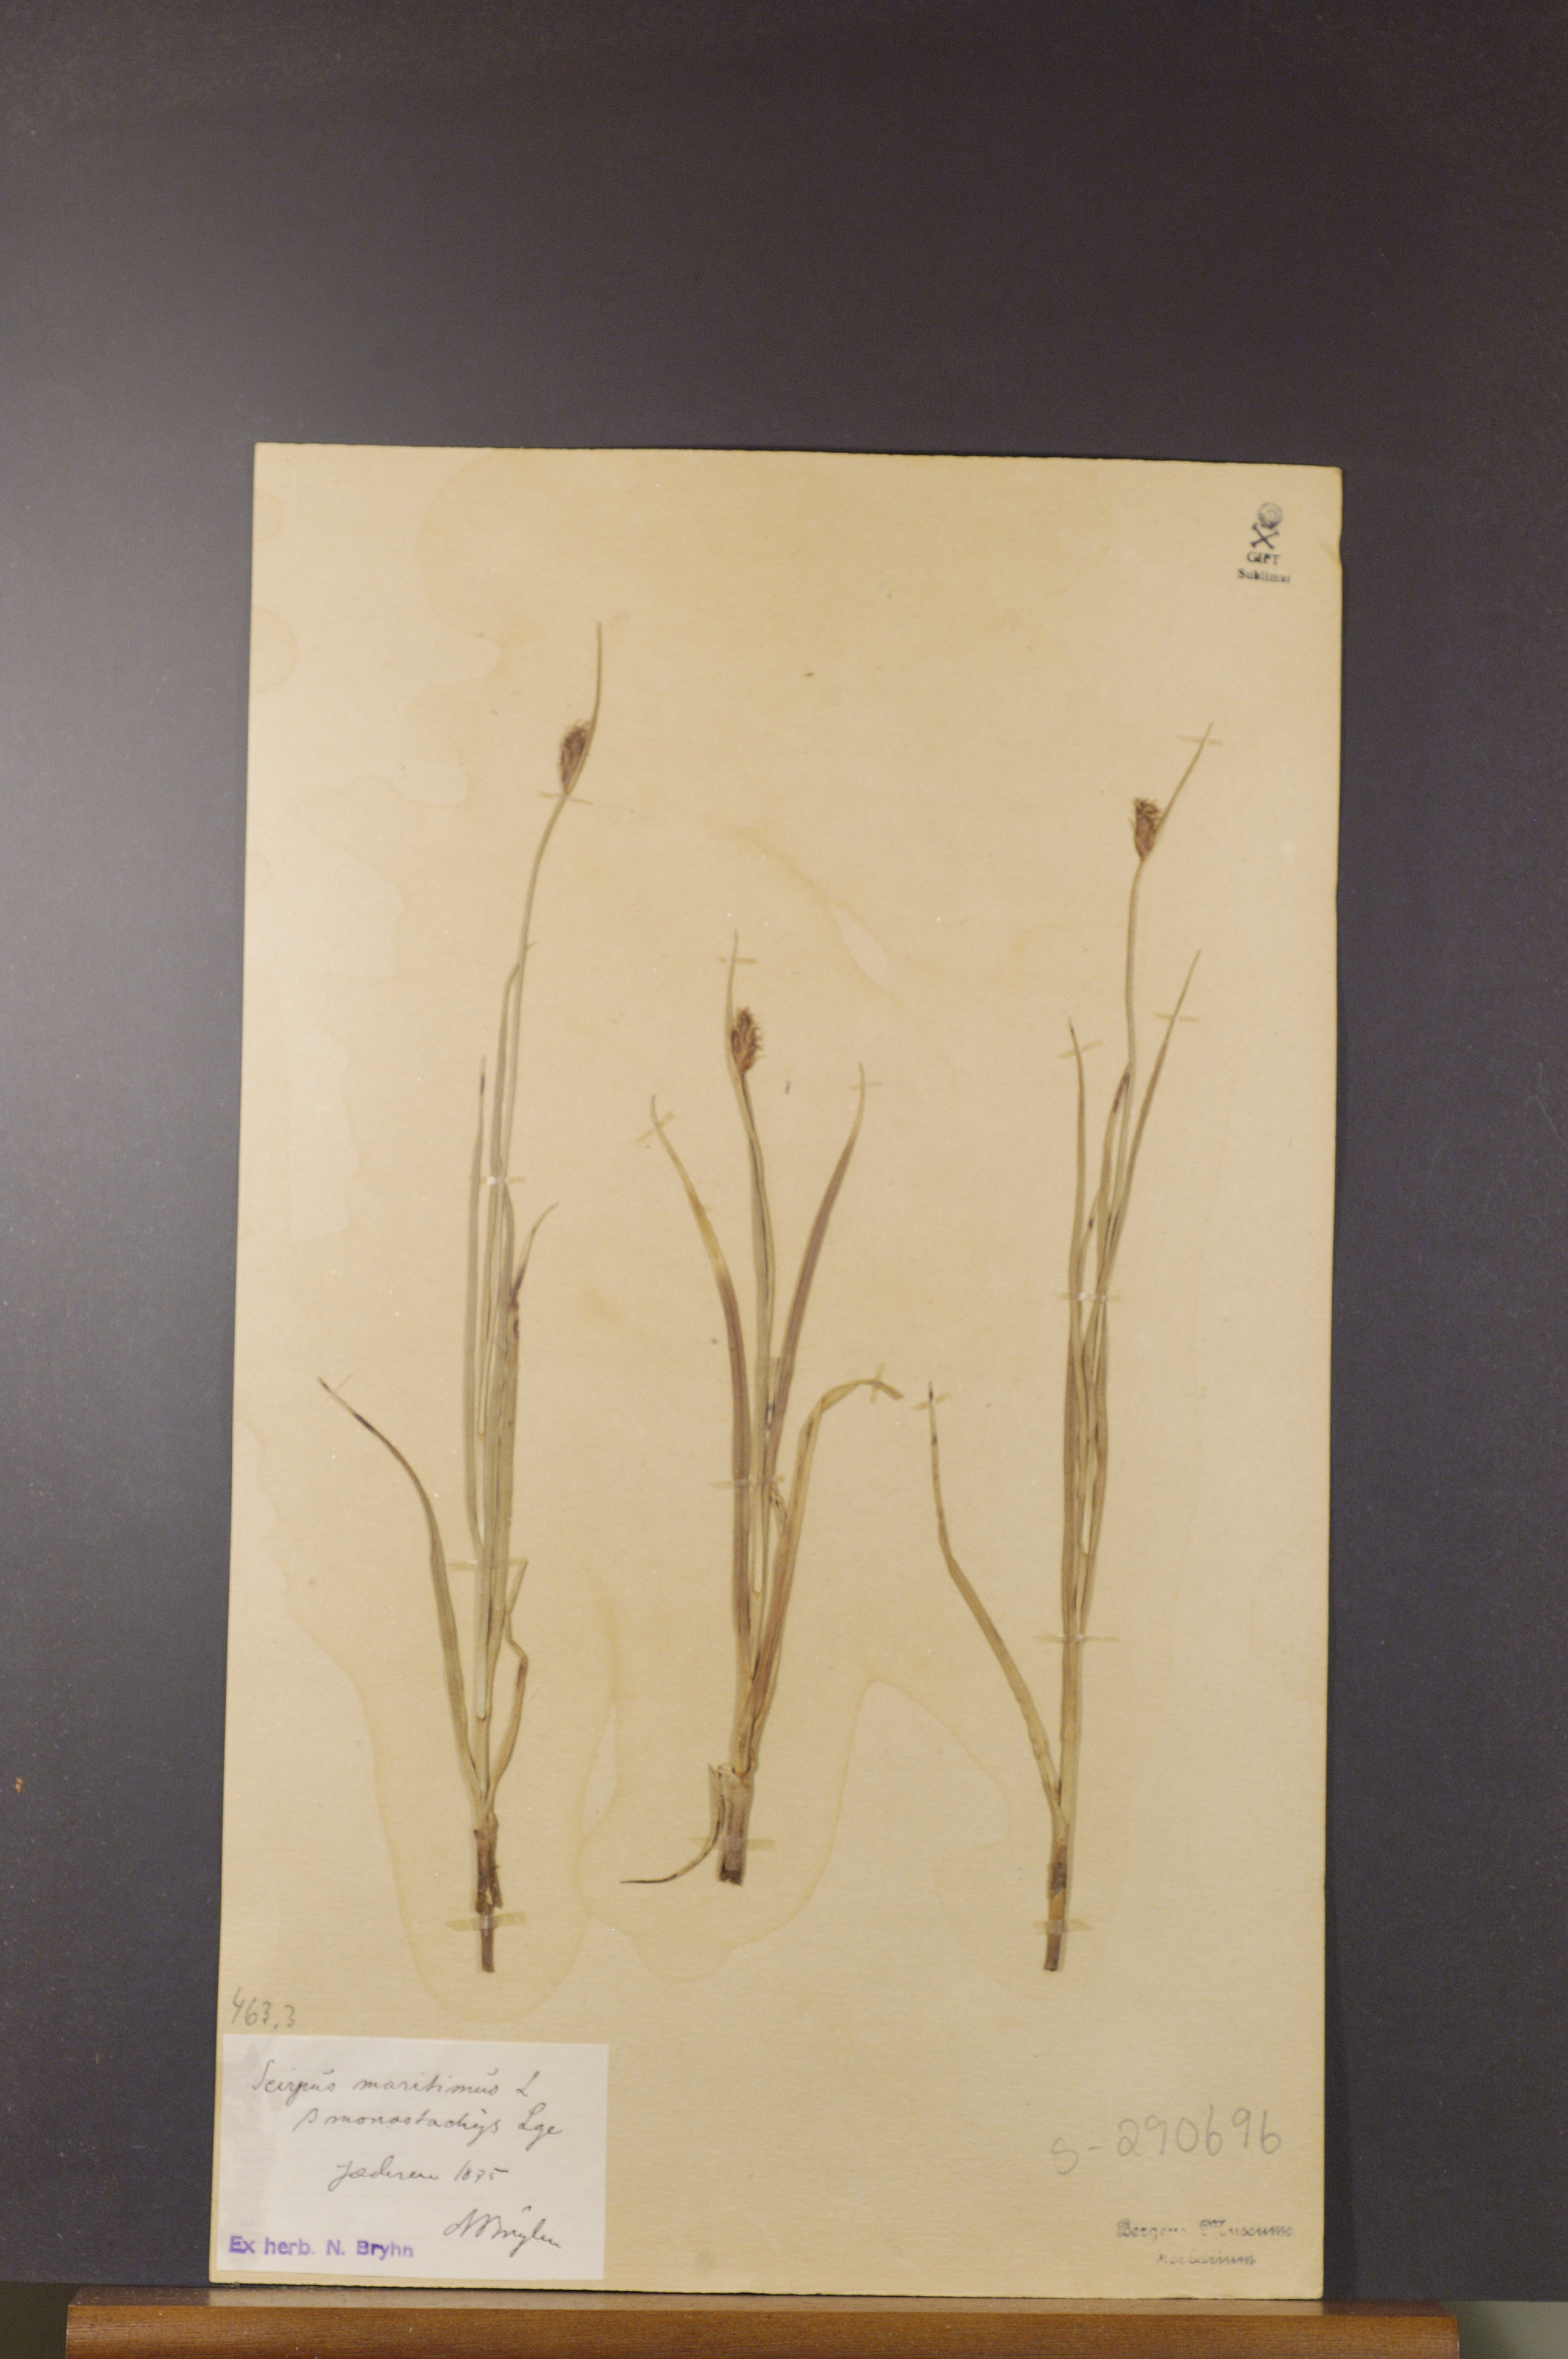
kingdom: Plantae
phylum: Tracheophyta
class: Liliopsida
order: Poales
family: Cyperaceae
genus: Bolboschoenus
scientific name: Bolboschoenus maritimus
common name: Sea club-rush
